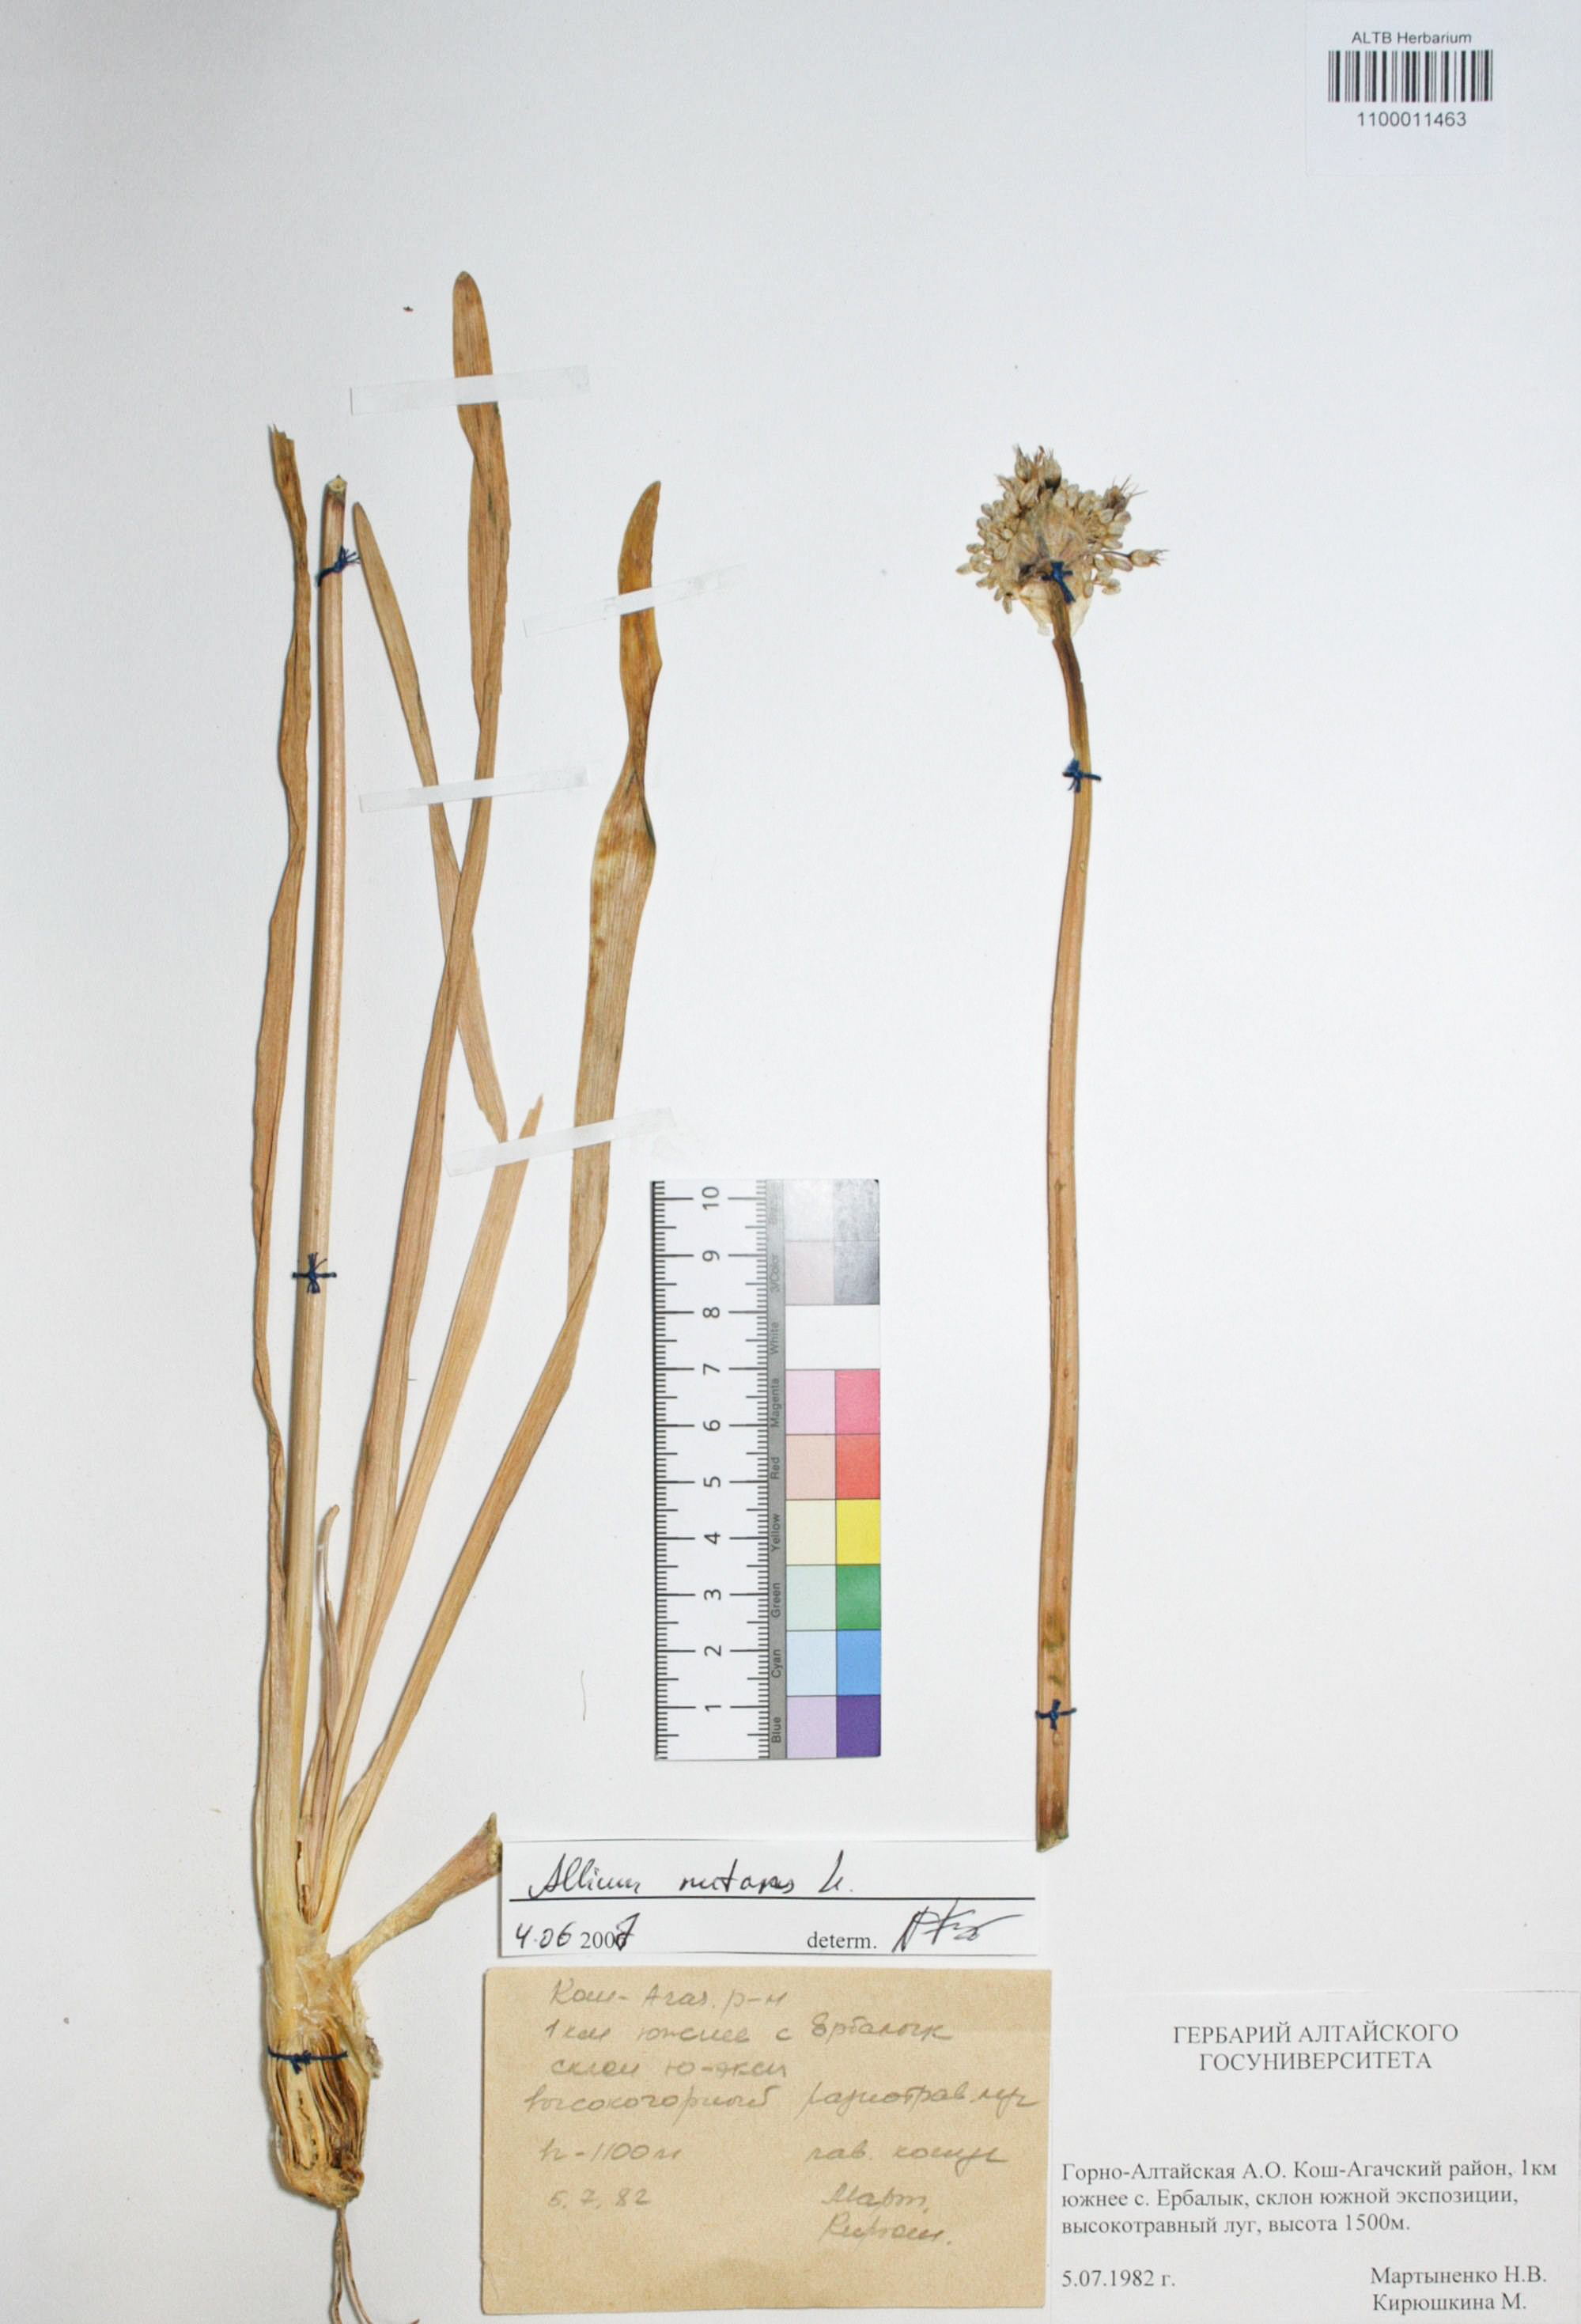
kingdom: Plantae
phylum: Tracheophyta
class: Liliopsida
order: Asparagales
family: Amaryllidaceae
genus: Allium
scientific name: Allium nutans
